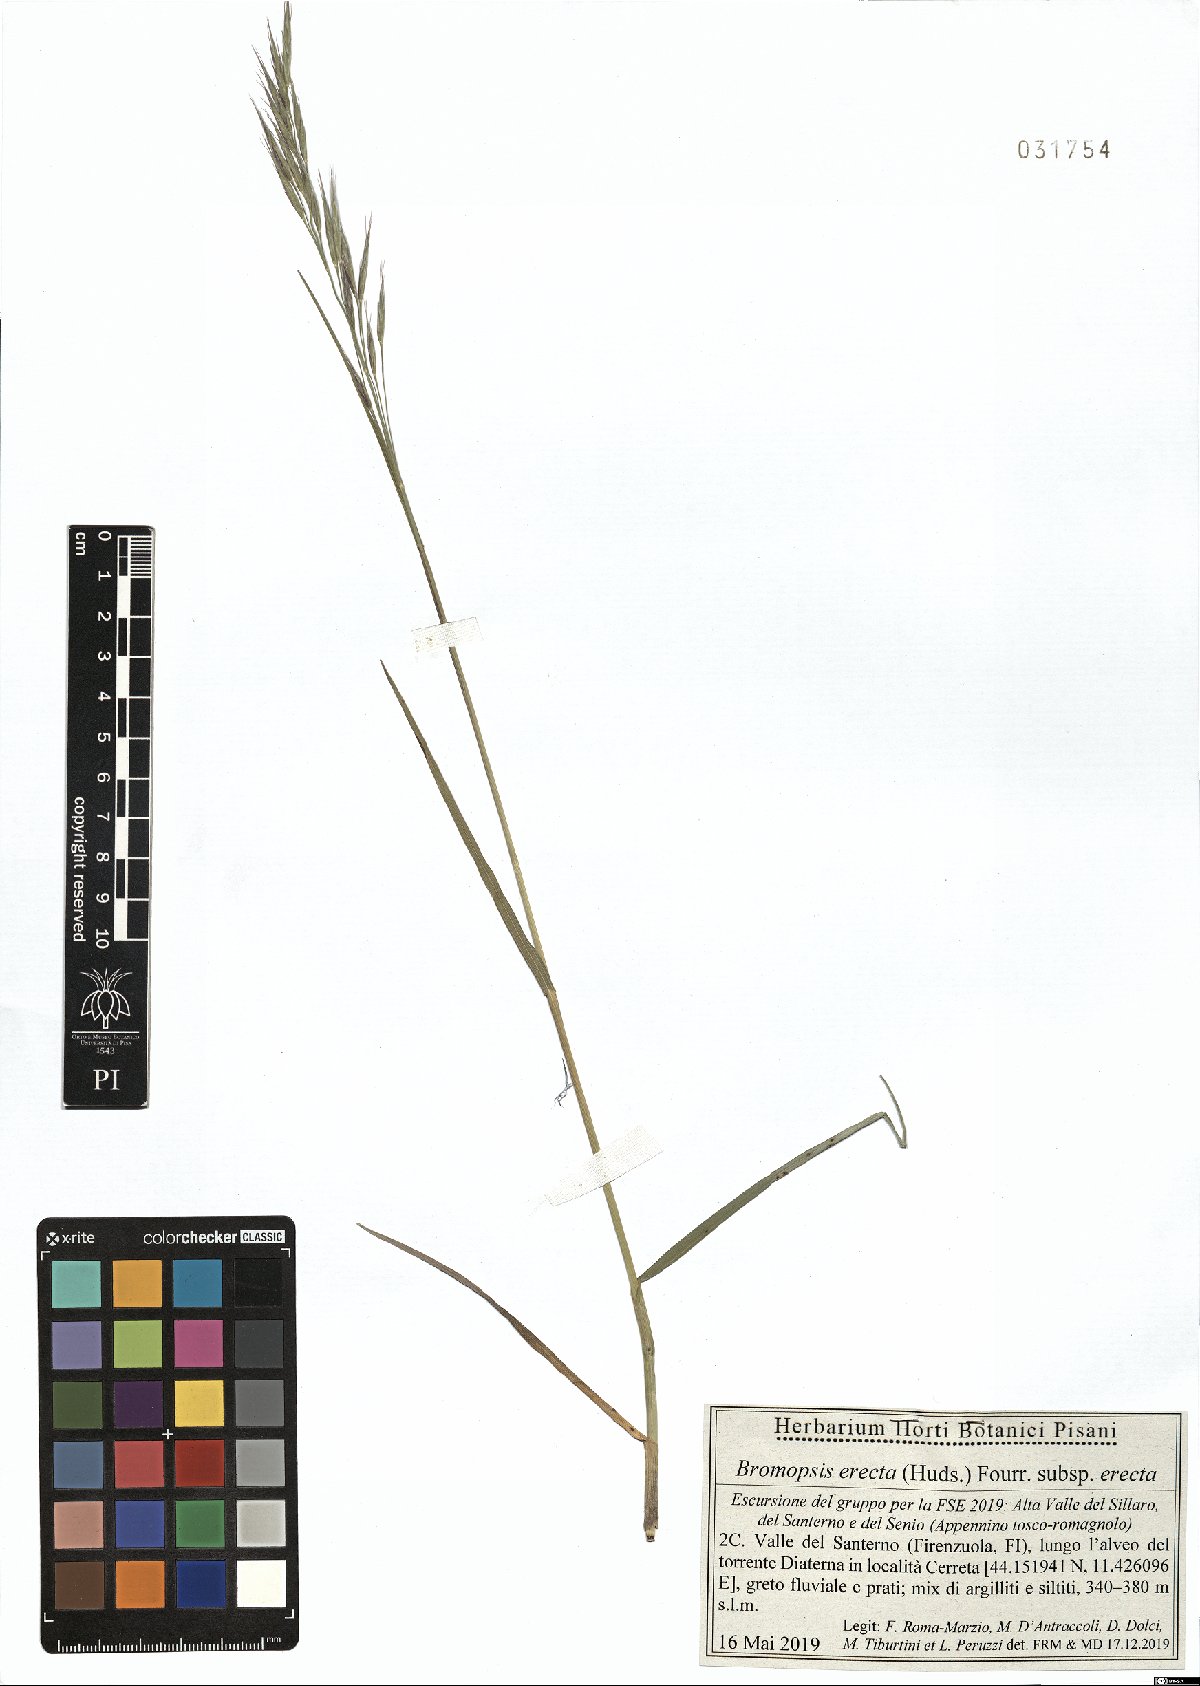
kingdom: Plantae
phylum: Tracheophyta
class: Liliopsida
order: Poales
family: Poaceae
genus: Bromus
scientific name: Bromus erectus
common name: Erect brome
